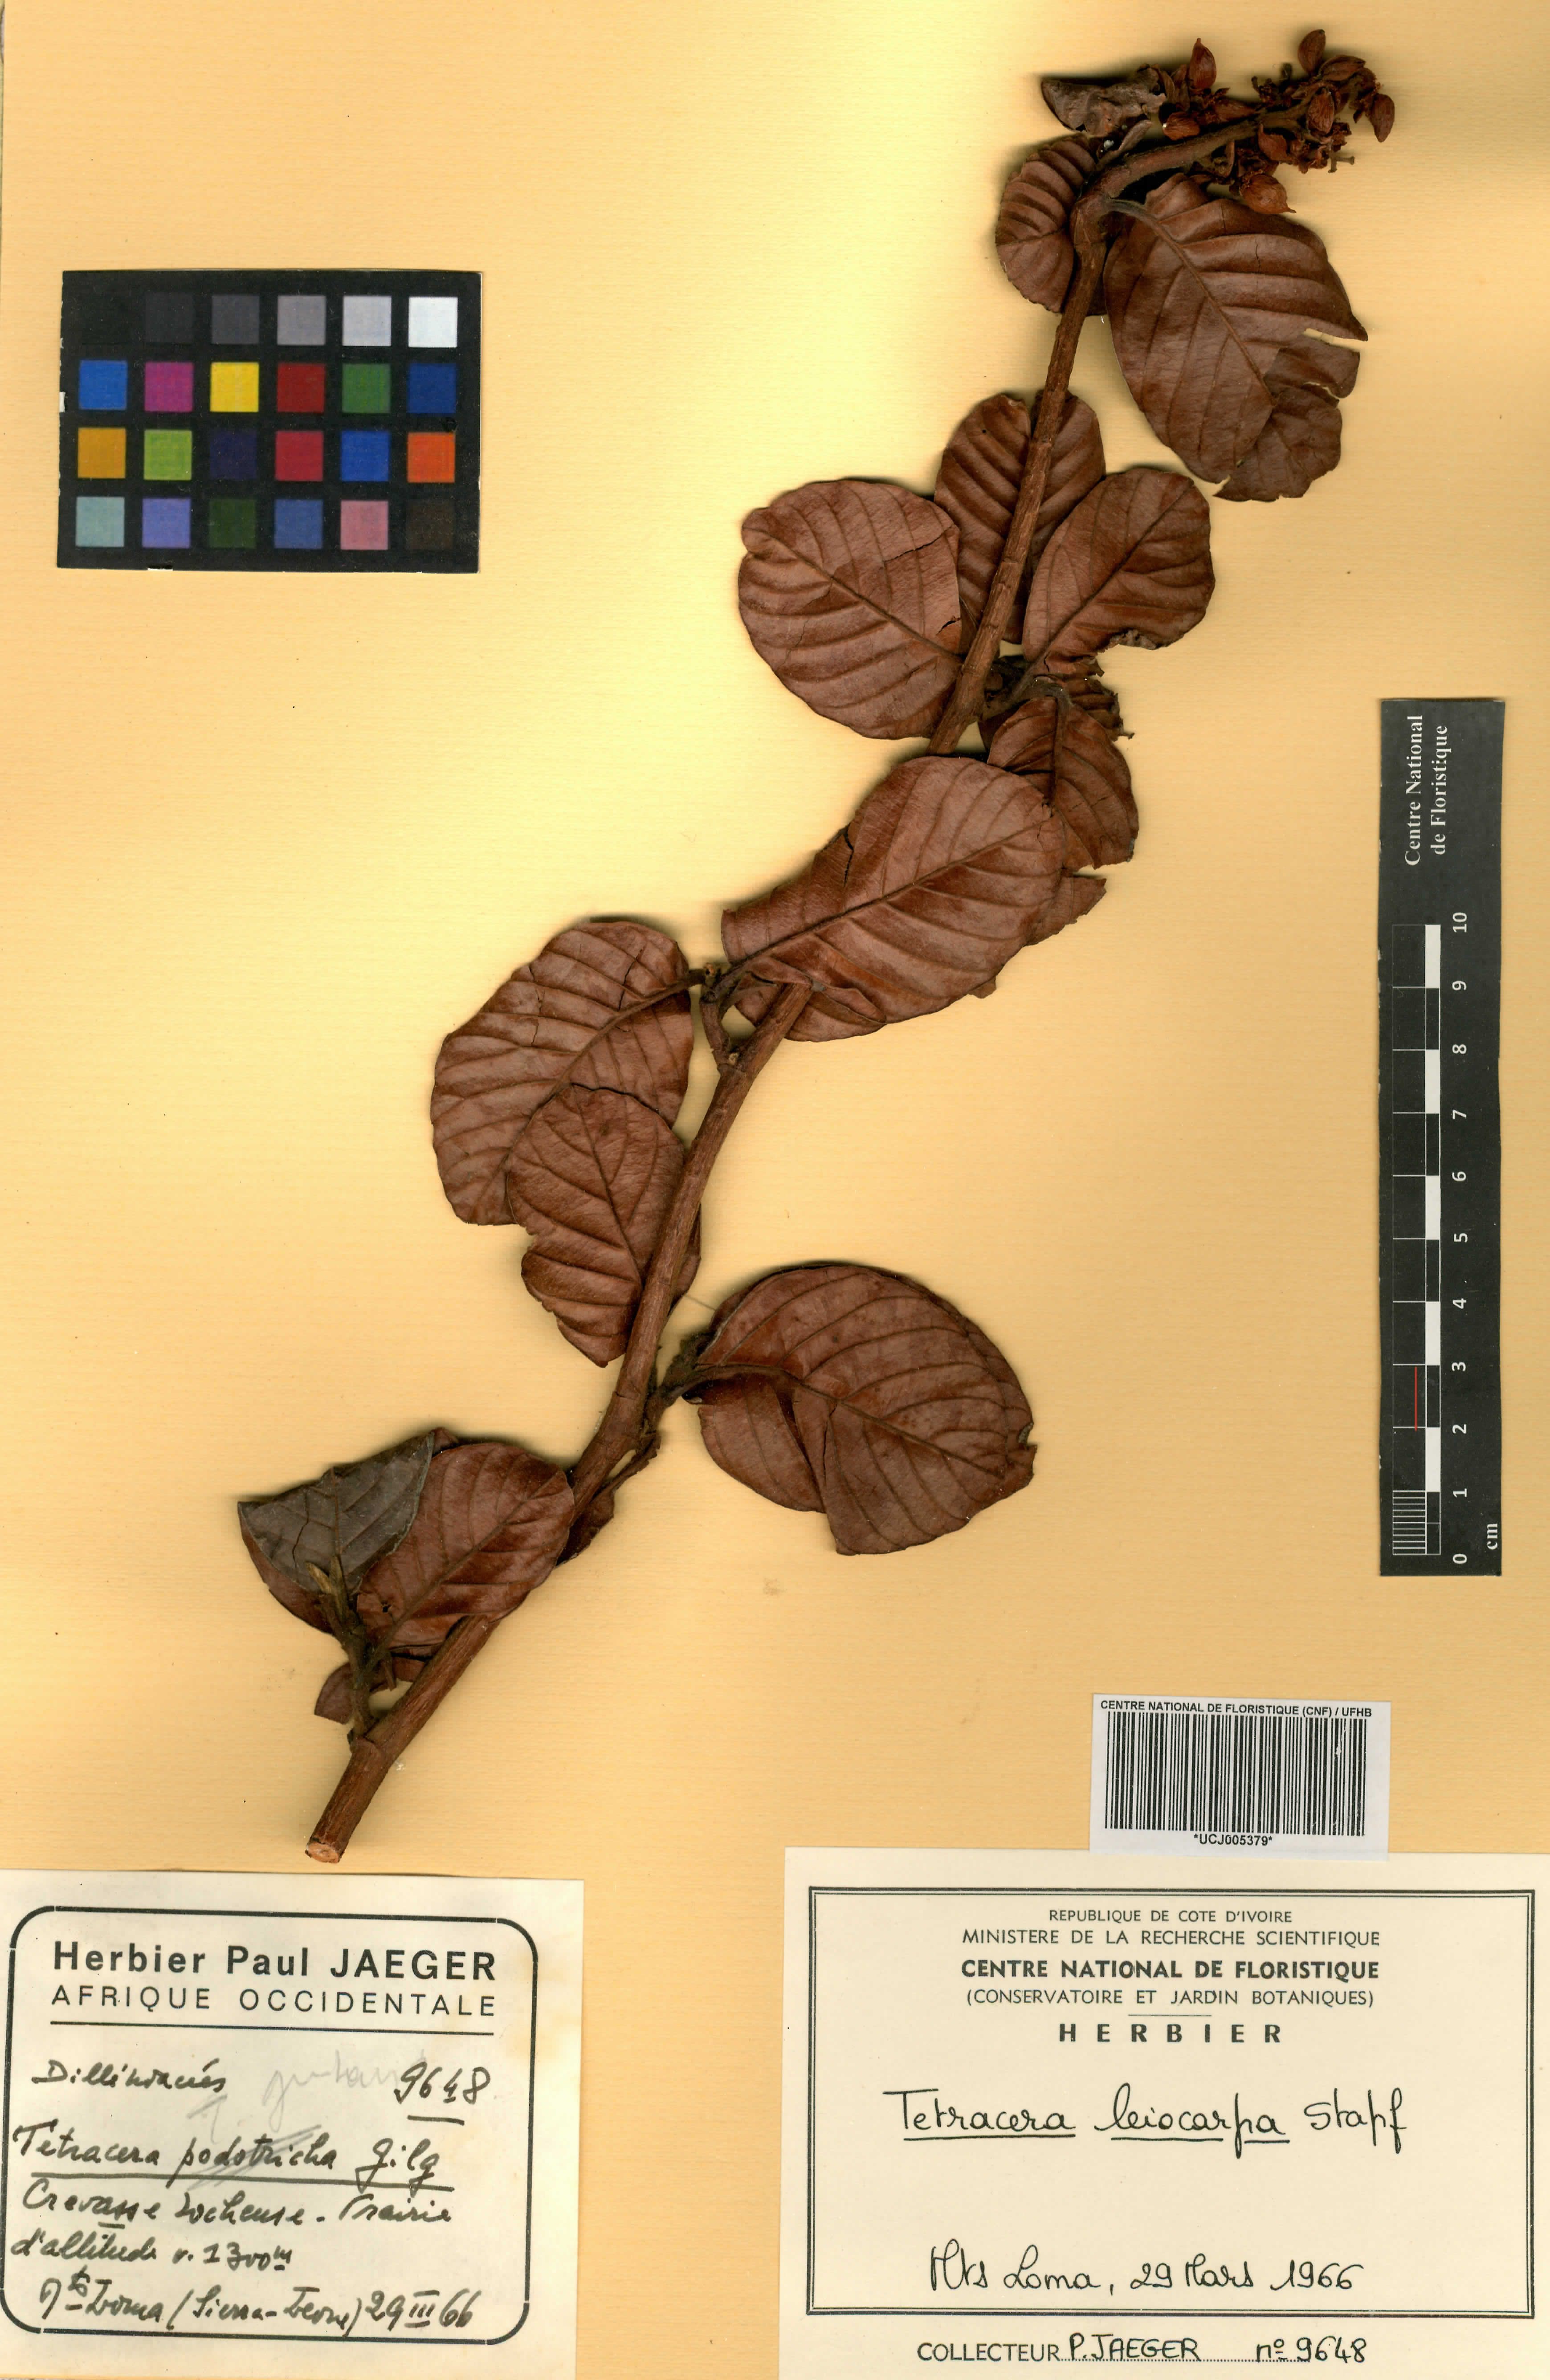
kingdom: Plantae
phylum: Tracheophyta
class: Magnoliopsida
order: Dilleniales
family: Dilleniaceae
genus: Tetracera
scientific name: Tetracera leiocarpa
